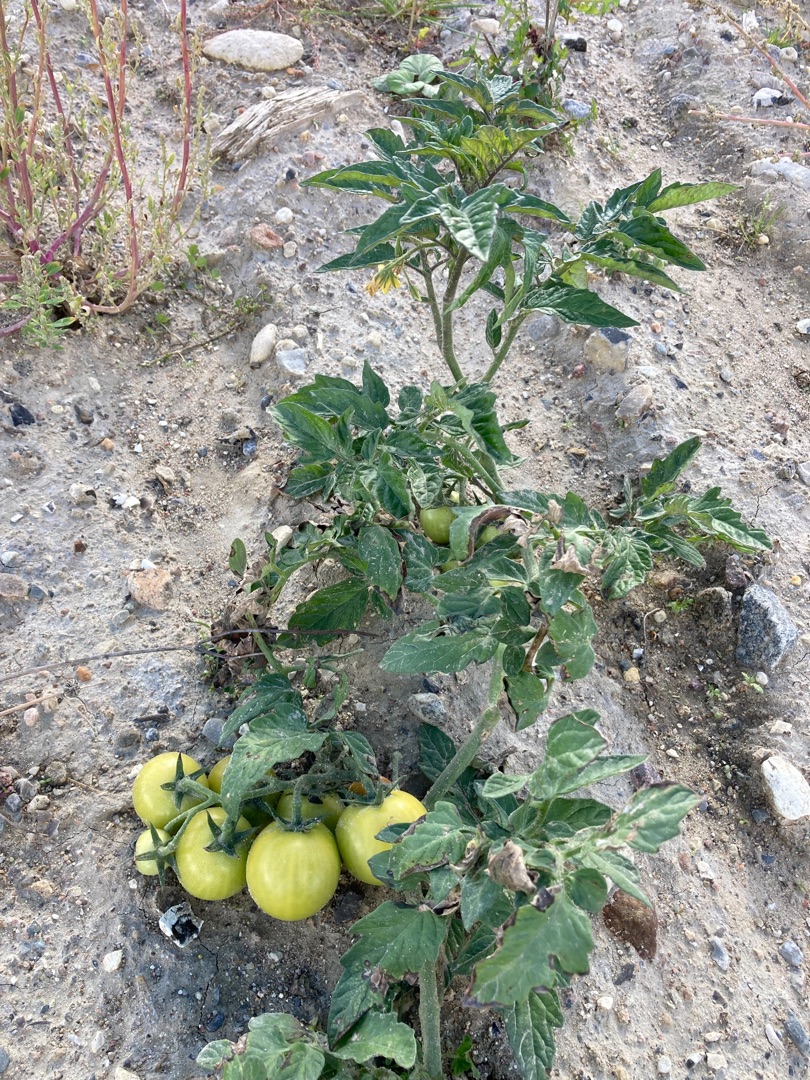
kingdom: Plantae
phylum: Tracheophyta
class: Magnoliopsida
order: Solanales
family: Solanaceae
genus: Solanum
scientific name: Solanum lycopersicum
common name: Tomat
